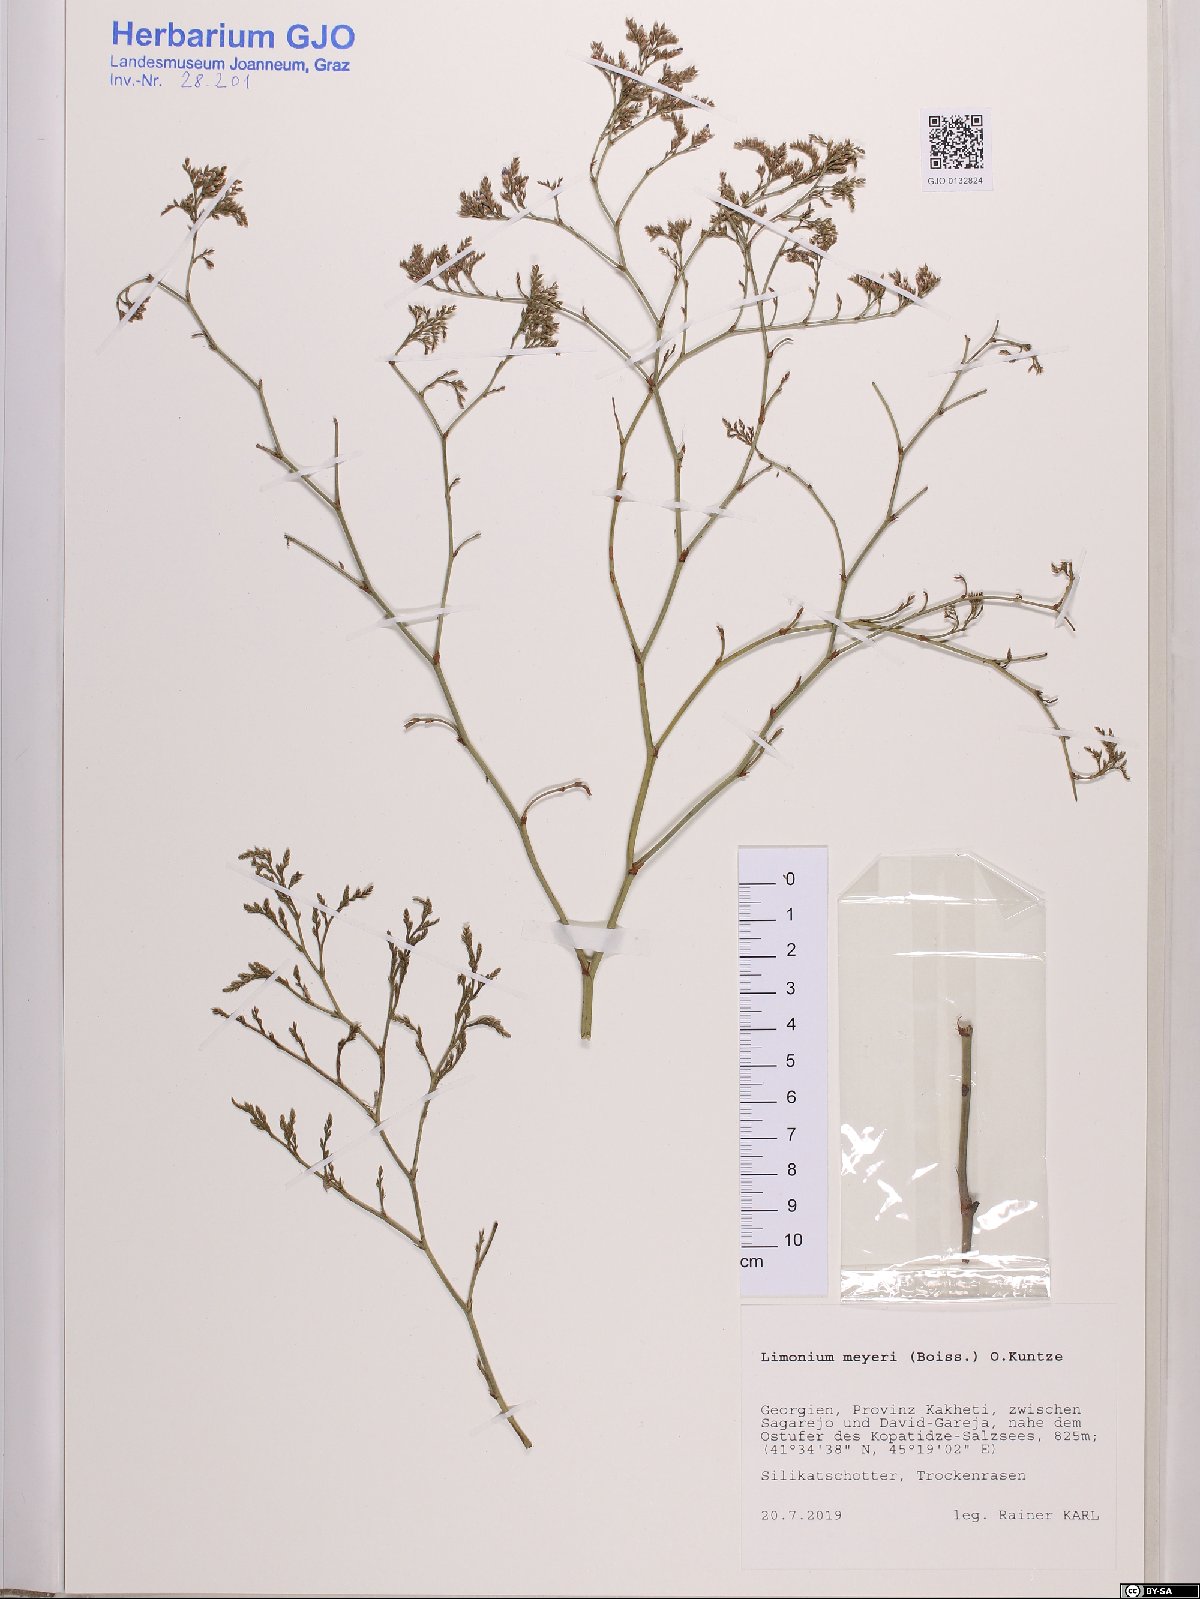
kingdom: Plantae
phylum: Tracheophyta
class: Magnoliopsida
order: Caryophyllales
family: Plumbaginaceae
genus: Limonium
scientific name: Limonium scoparium
